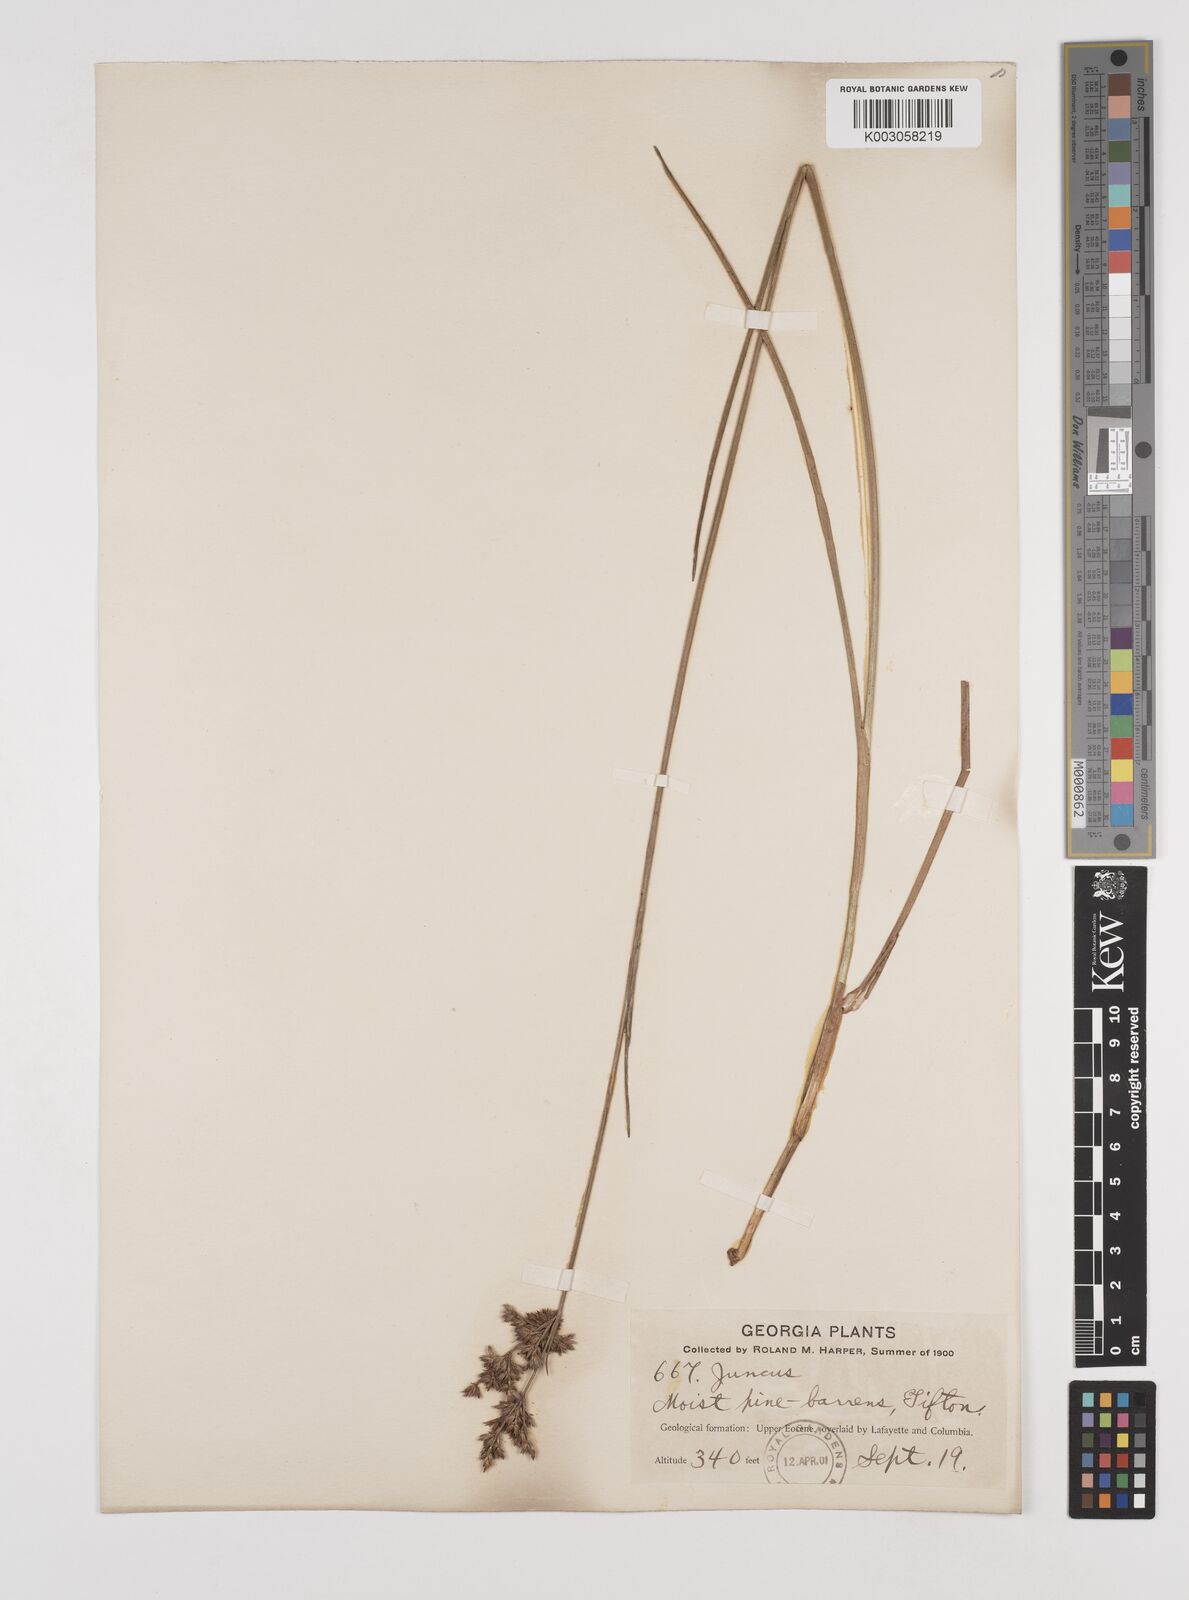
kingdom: Plantae
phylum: Tracheophyta
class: Liliopsida
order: Poales
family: Juncaceae
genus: Juncus
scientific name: Juncus
